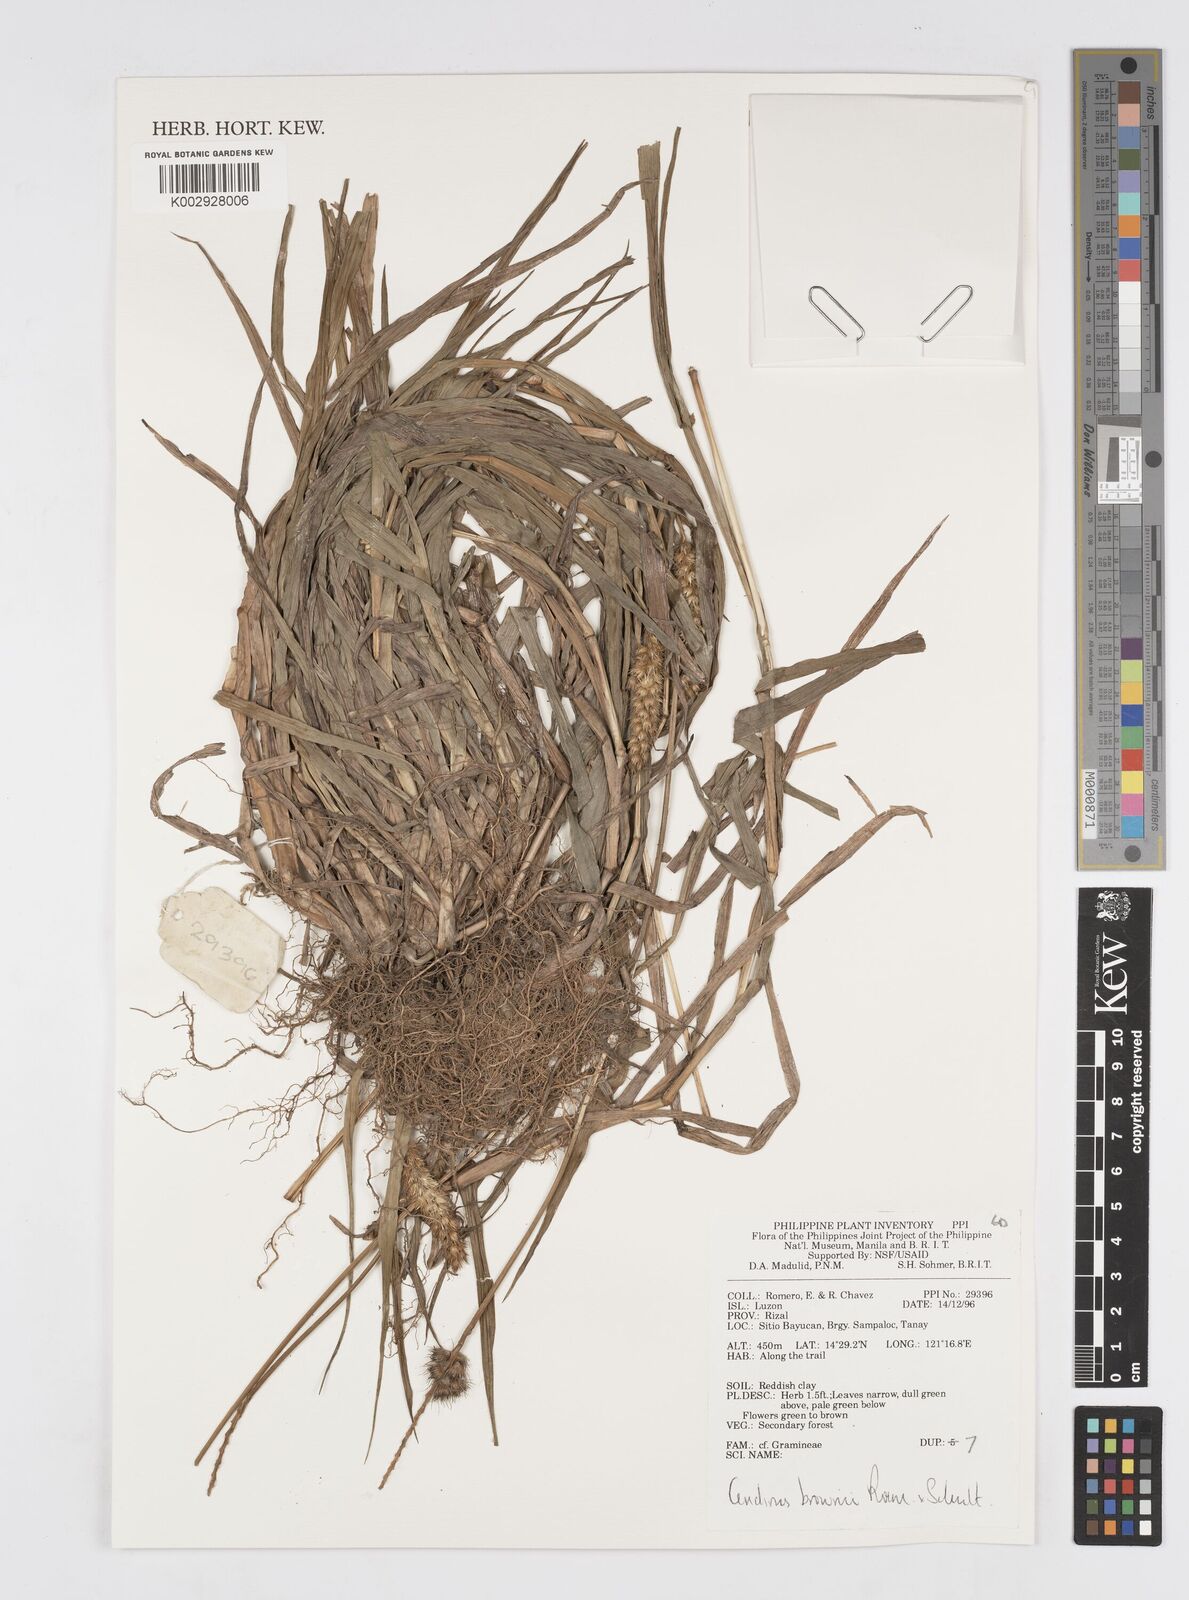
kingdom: Plantae
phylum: Tracheophyta
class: Liliopsida
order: Poales
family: Poaceae
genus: Cenchrus
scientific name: Cenchrus brownii
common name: Slim-bristle sandbur
